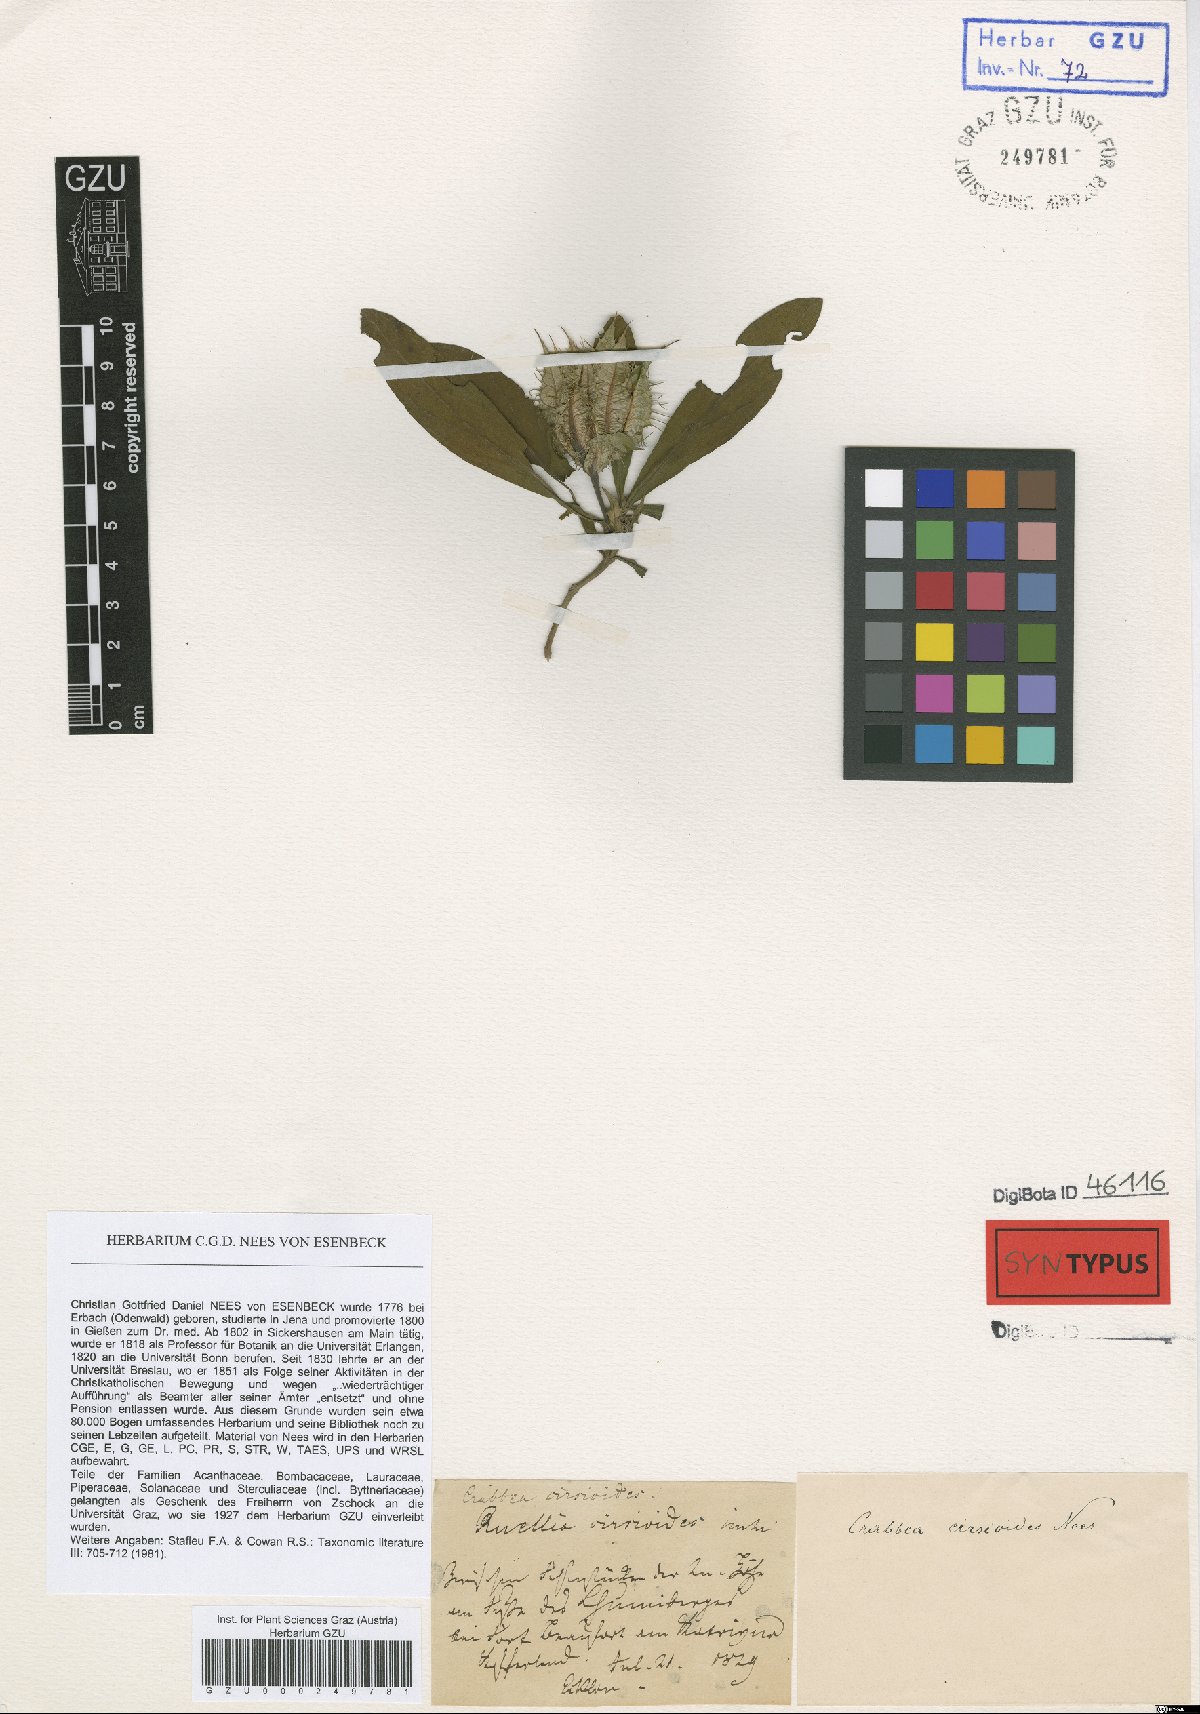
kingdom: Plantae
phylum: Tracheophyta
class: Magnoliopsida
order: Lamiales
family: Acanthaceae
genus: Crabbea
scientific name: Crabbea cirsioides
